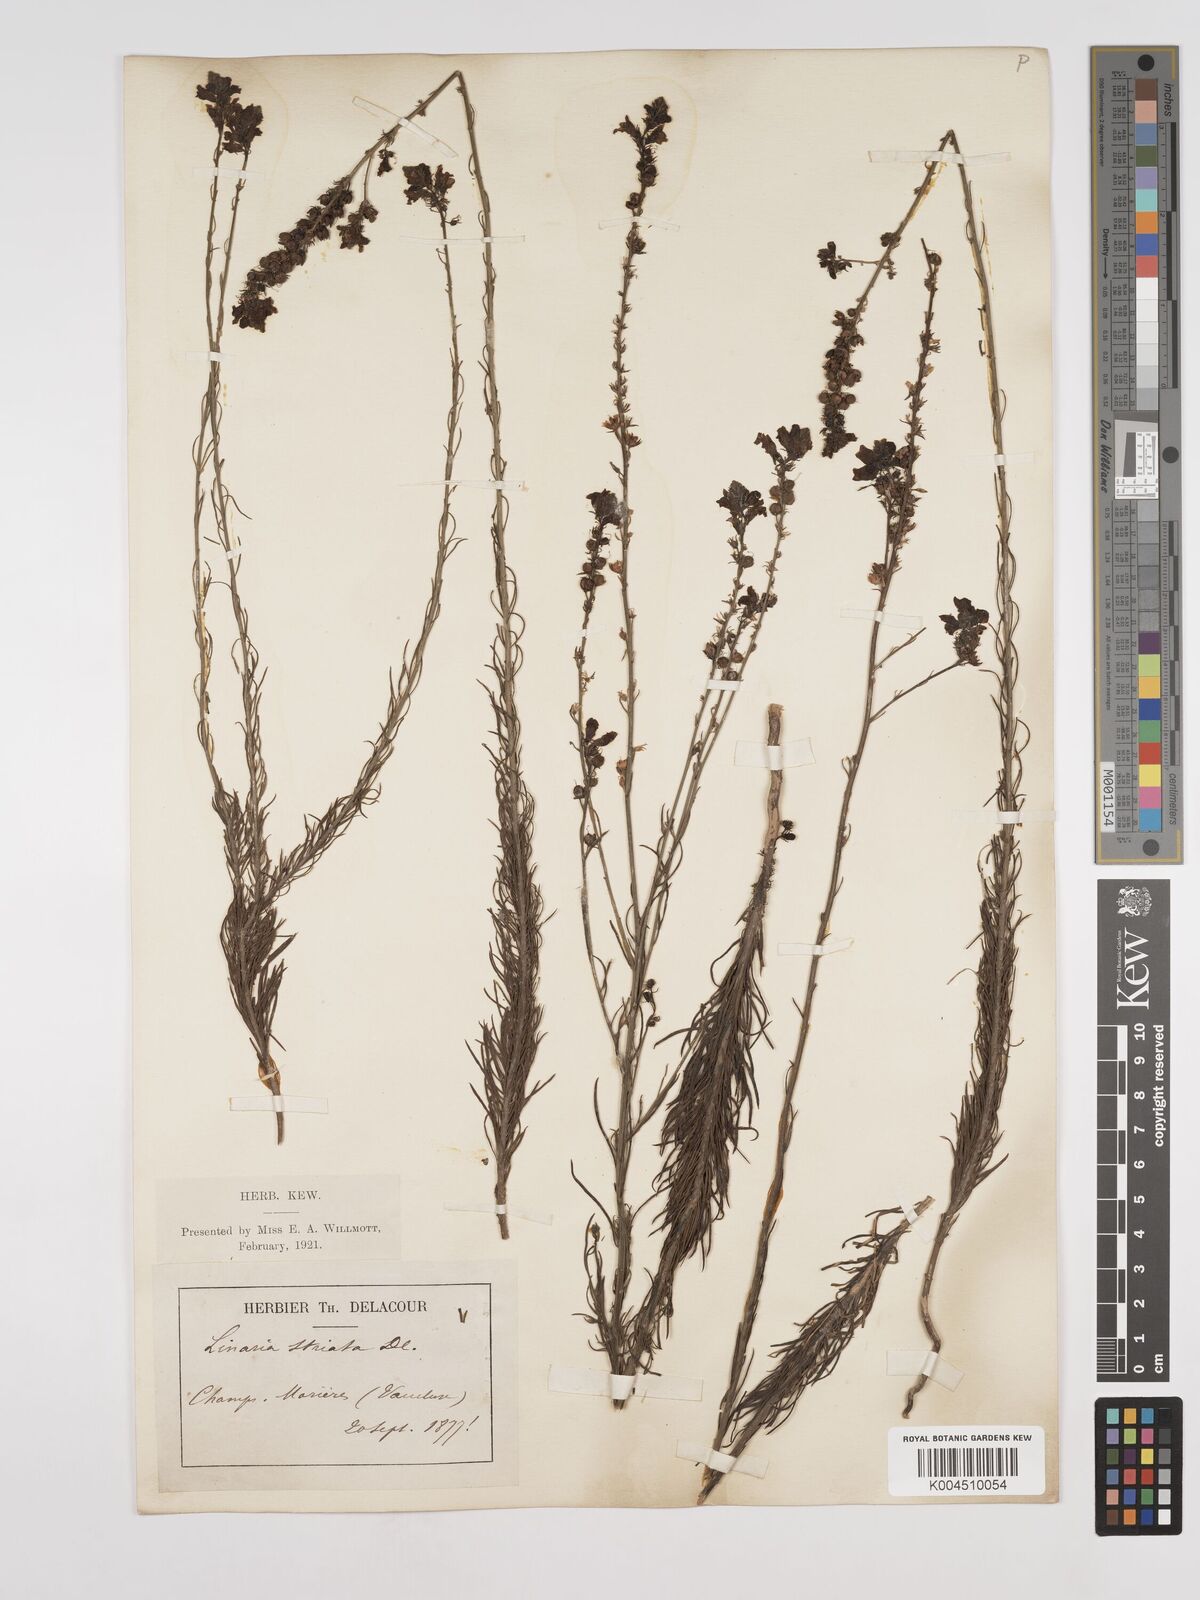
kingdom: Plantae
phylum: Tracheophyta
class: Magnoliopsida
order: Lamiales
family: Plantaginaceae
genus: Linaria
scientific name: Linaria repens
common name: Pale toadflax
